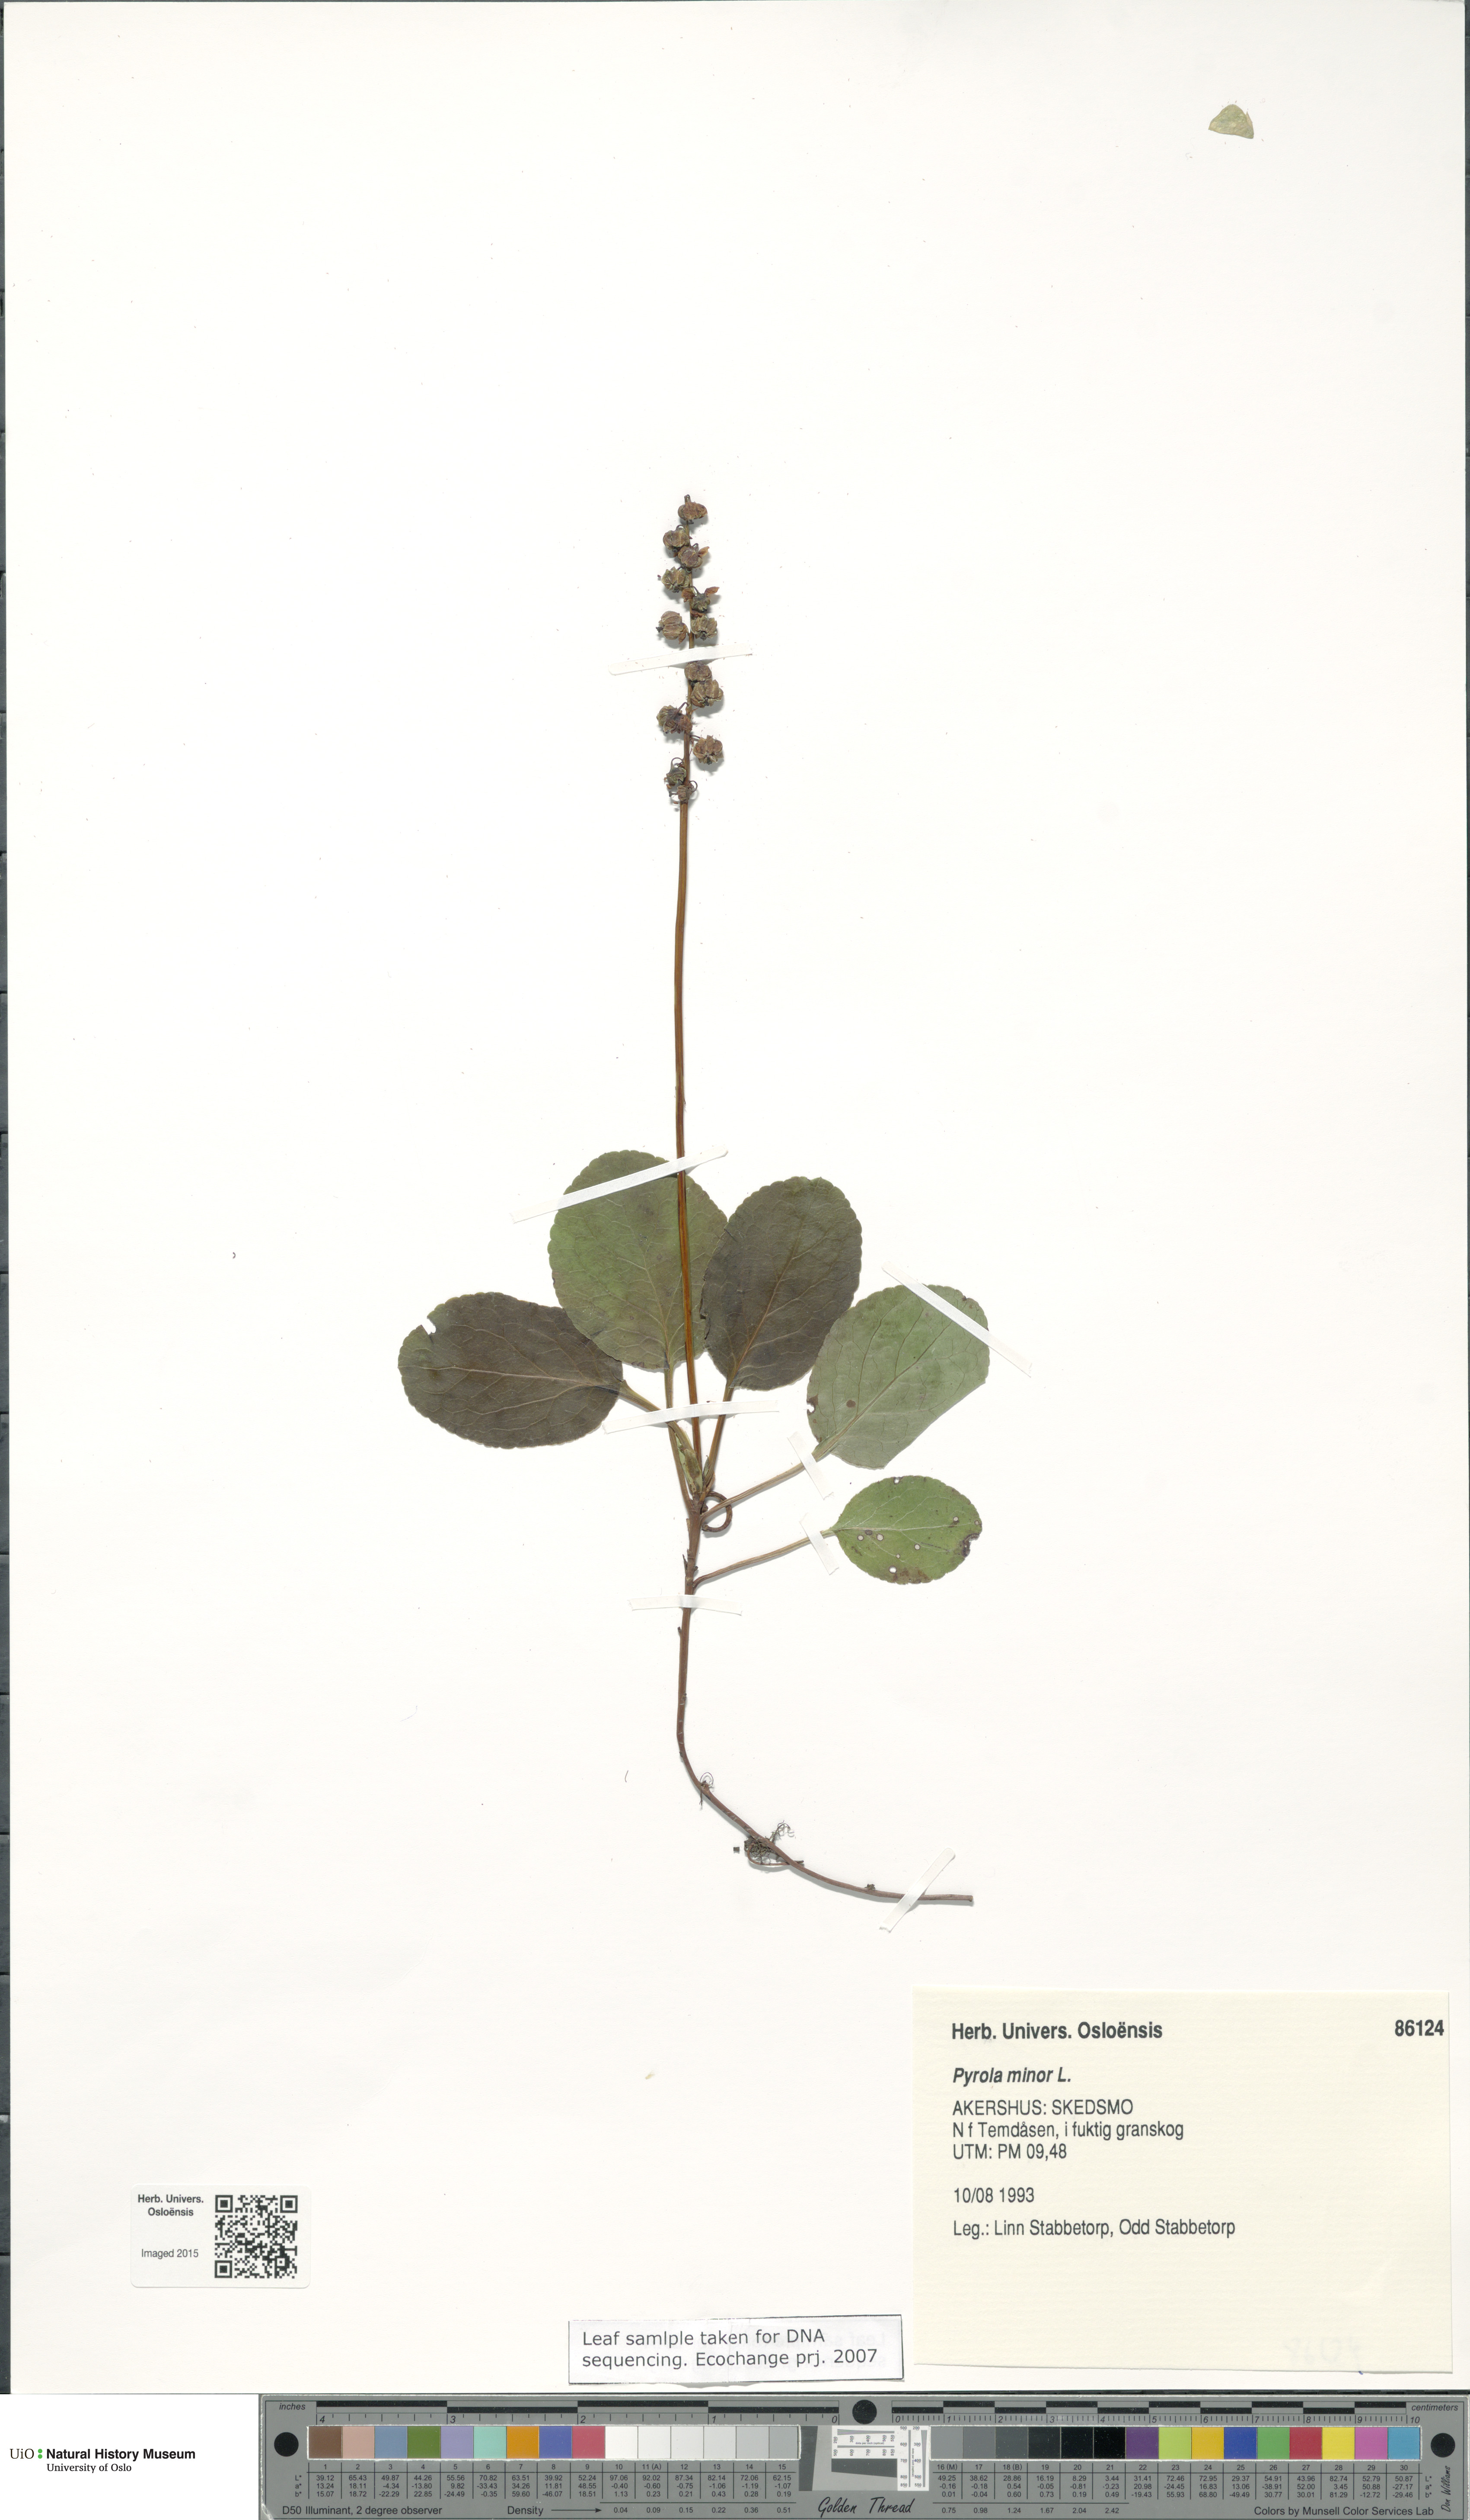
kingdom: Plantae
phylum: Tracheophyta
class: Magnoliopsida
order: Ericales
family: Ericaceae
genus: Pyrola
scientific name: Pyrola minor
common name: Common wintergreen
